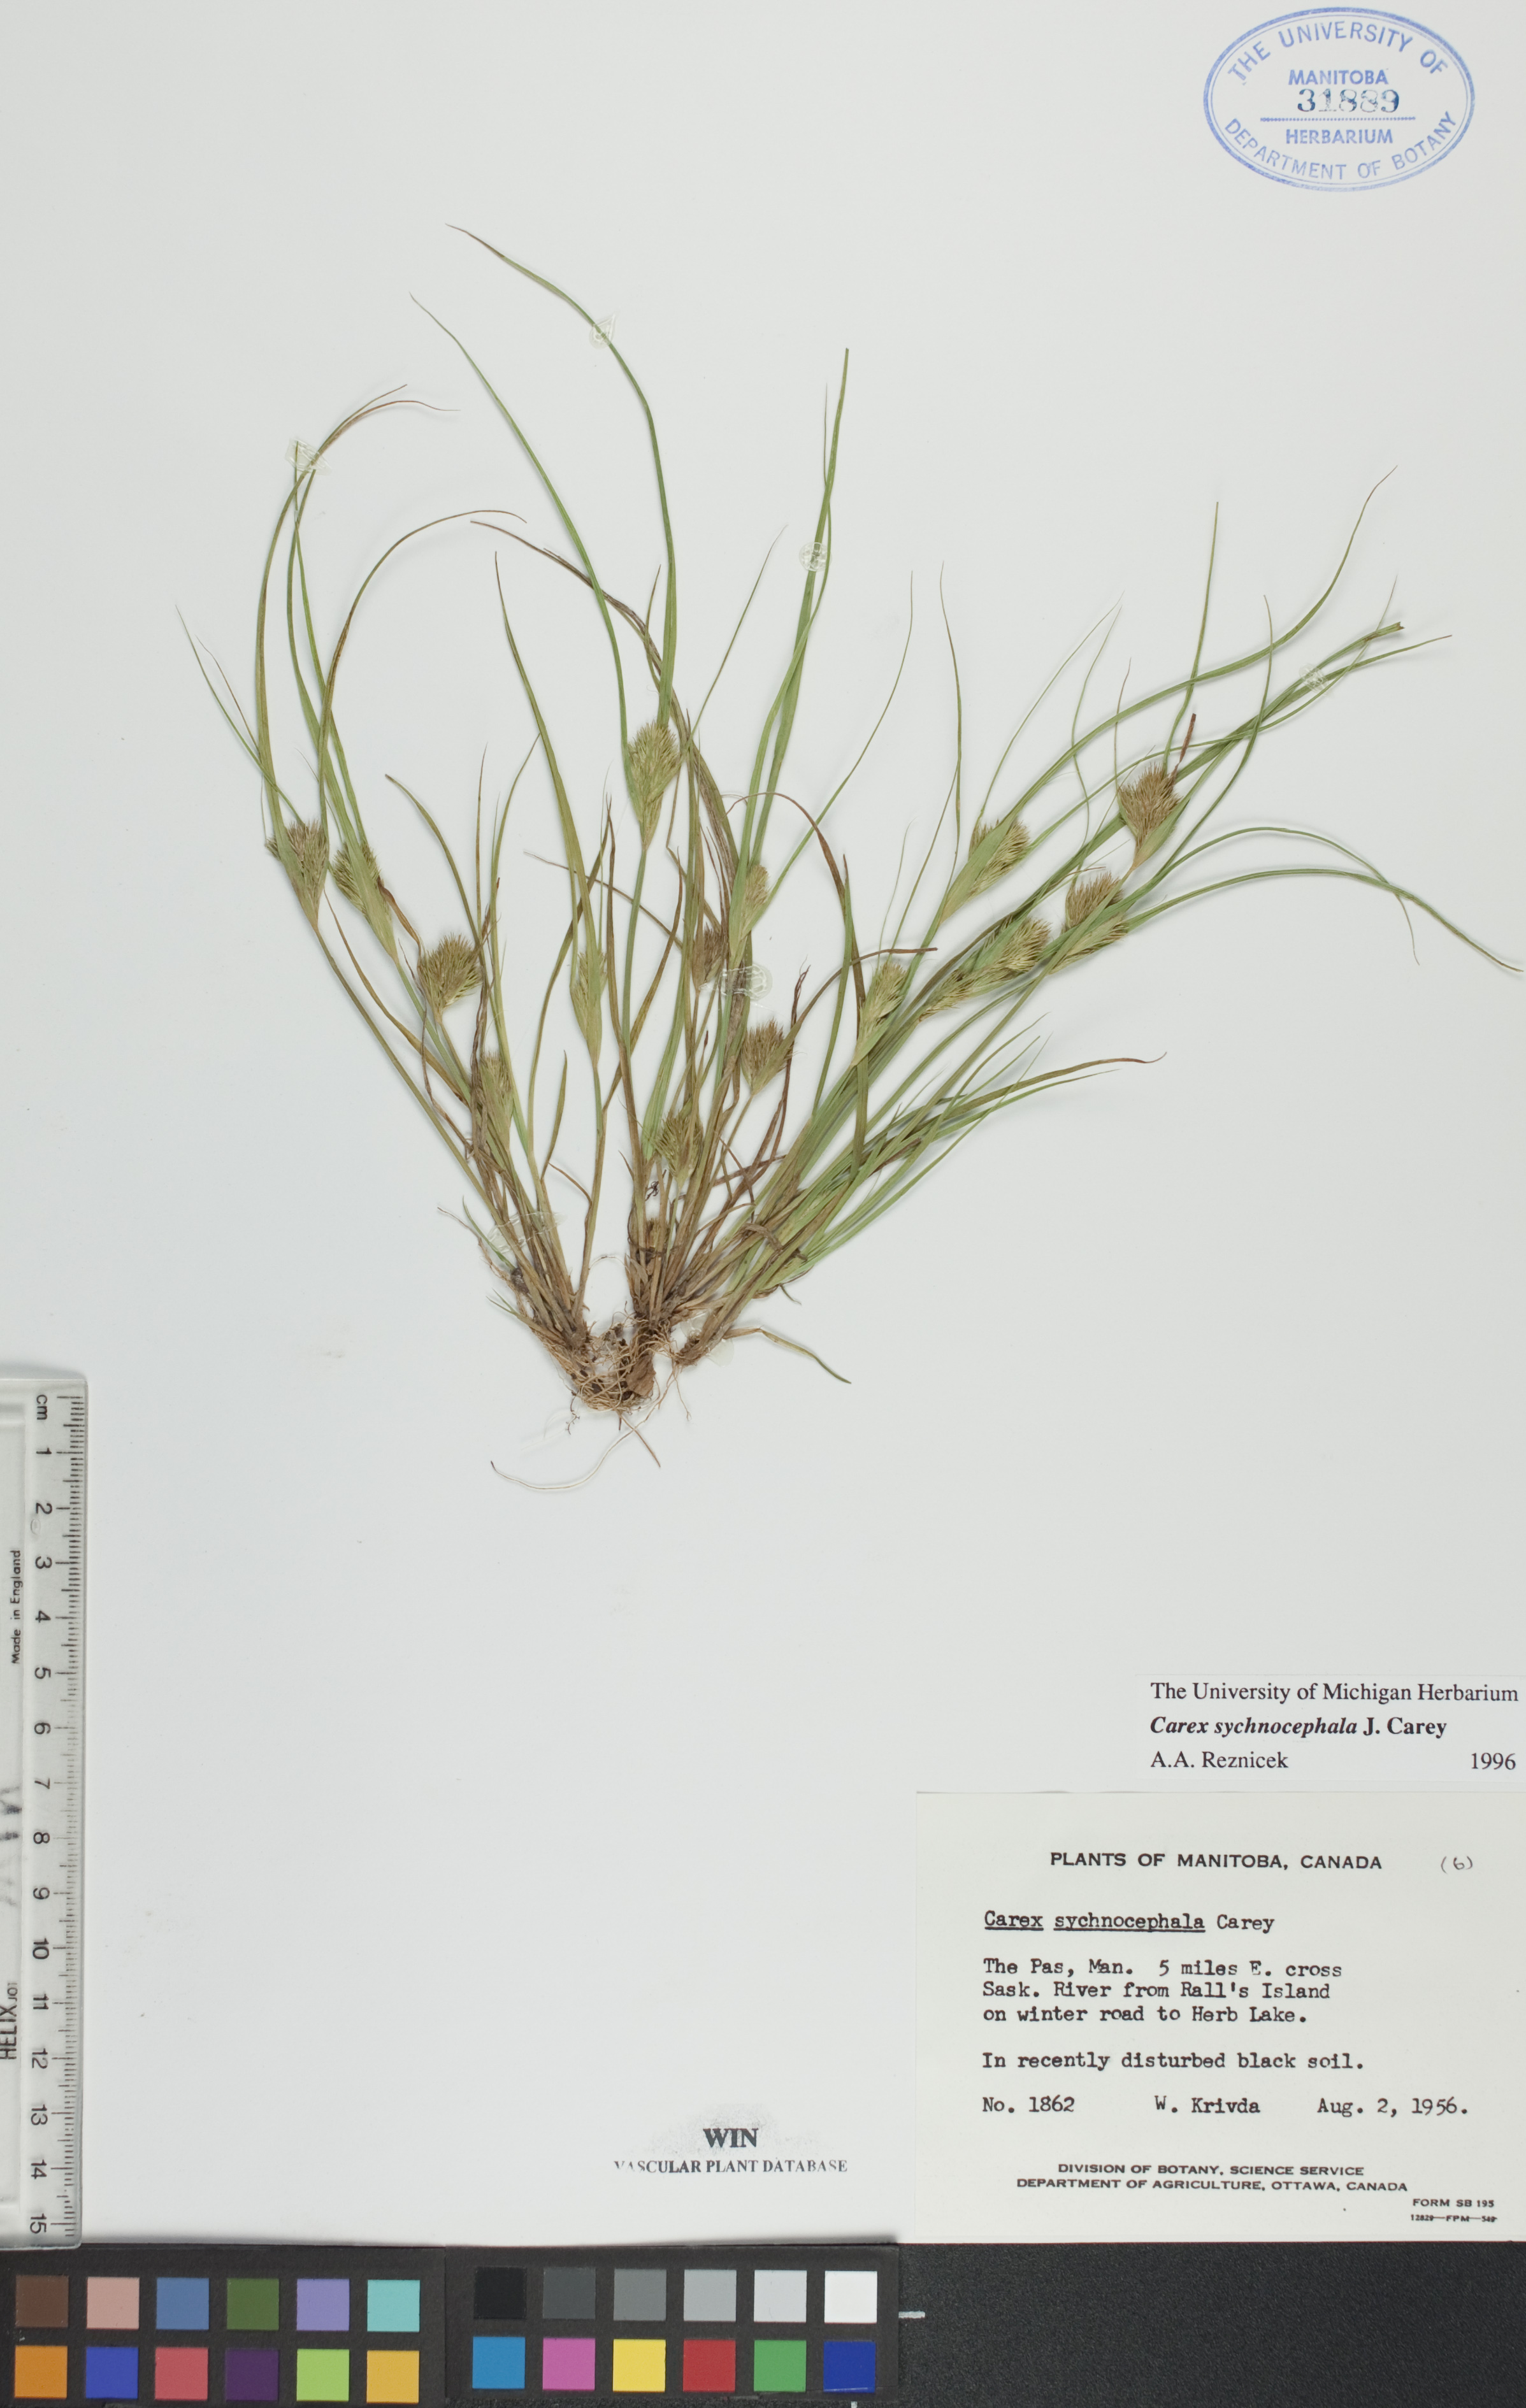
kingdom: Plantae
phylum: Tracheophyta
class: Liliopsida
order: Poales
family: Cyperaceae
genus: Carex
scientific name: Carex sychnocephala
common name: Dense long-beaked sedge
